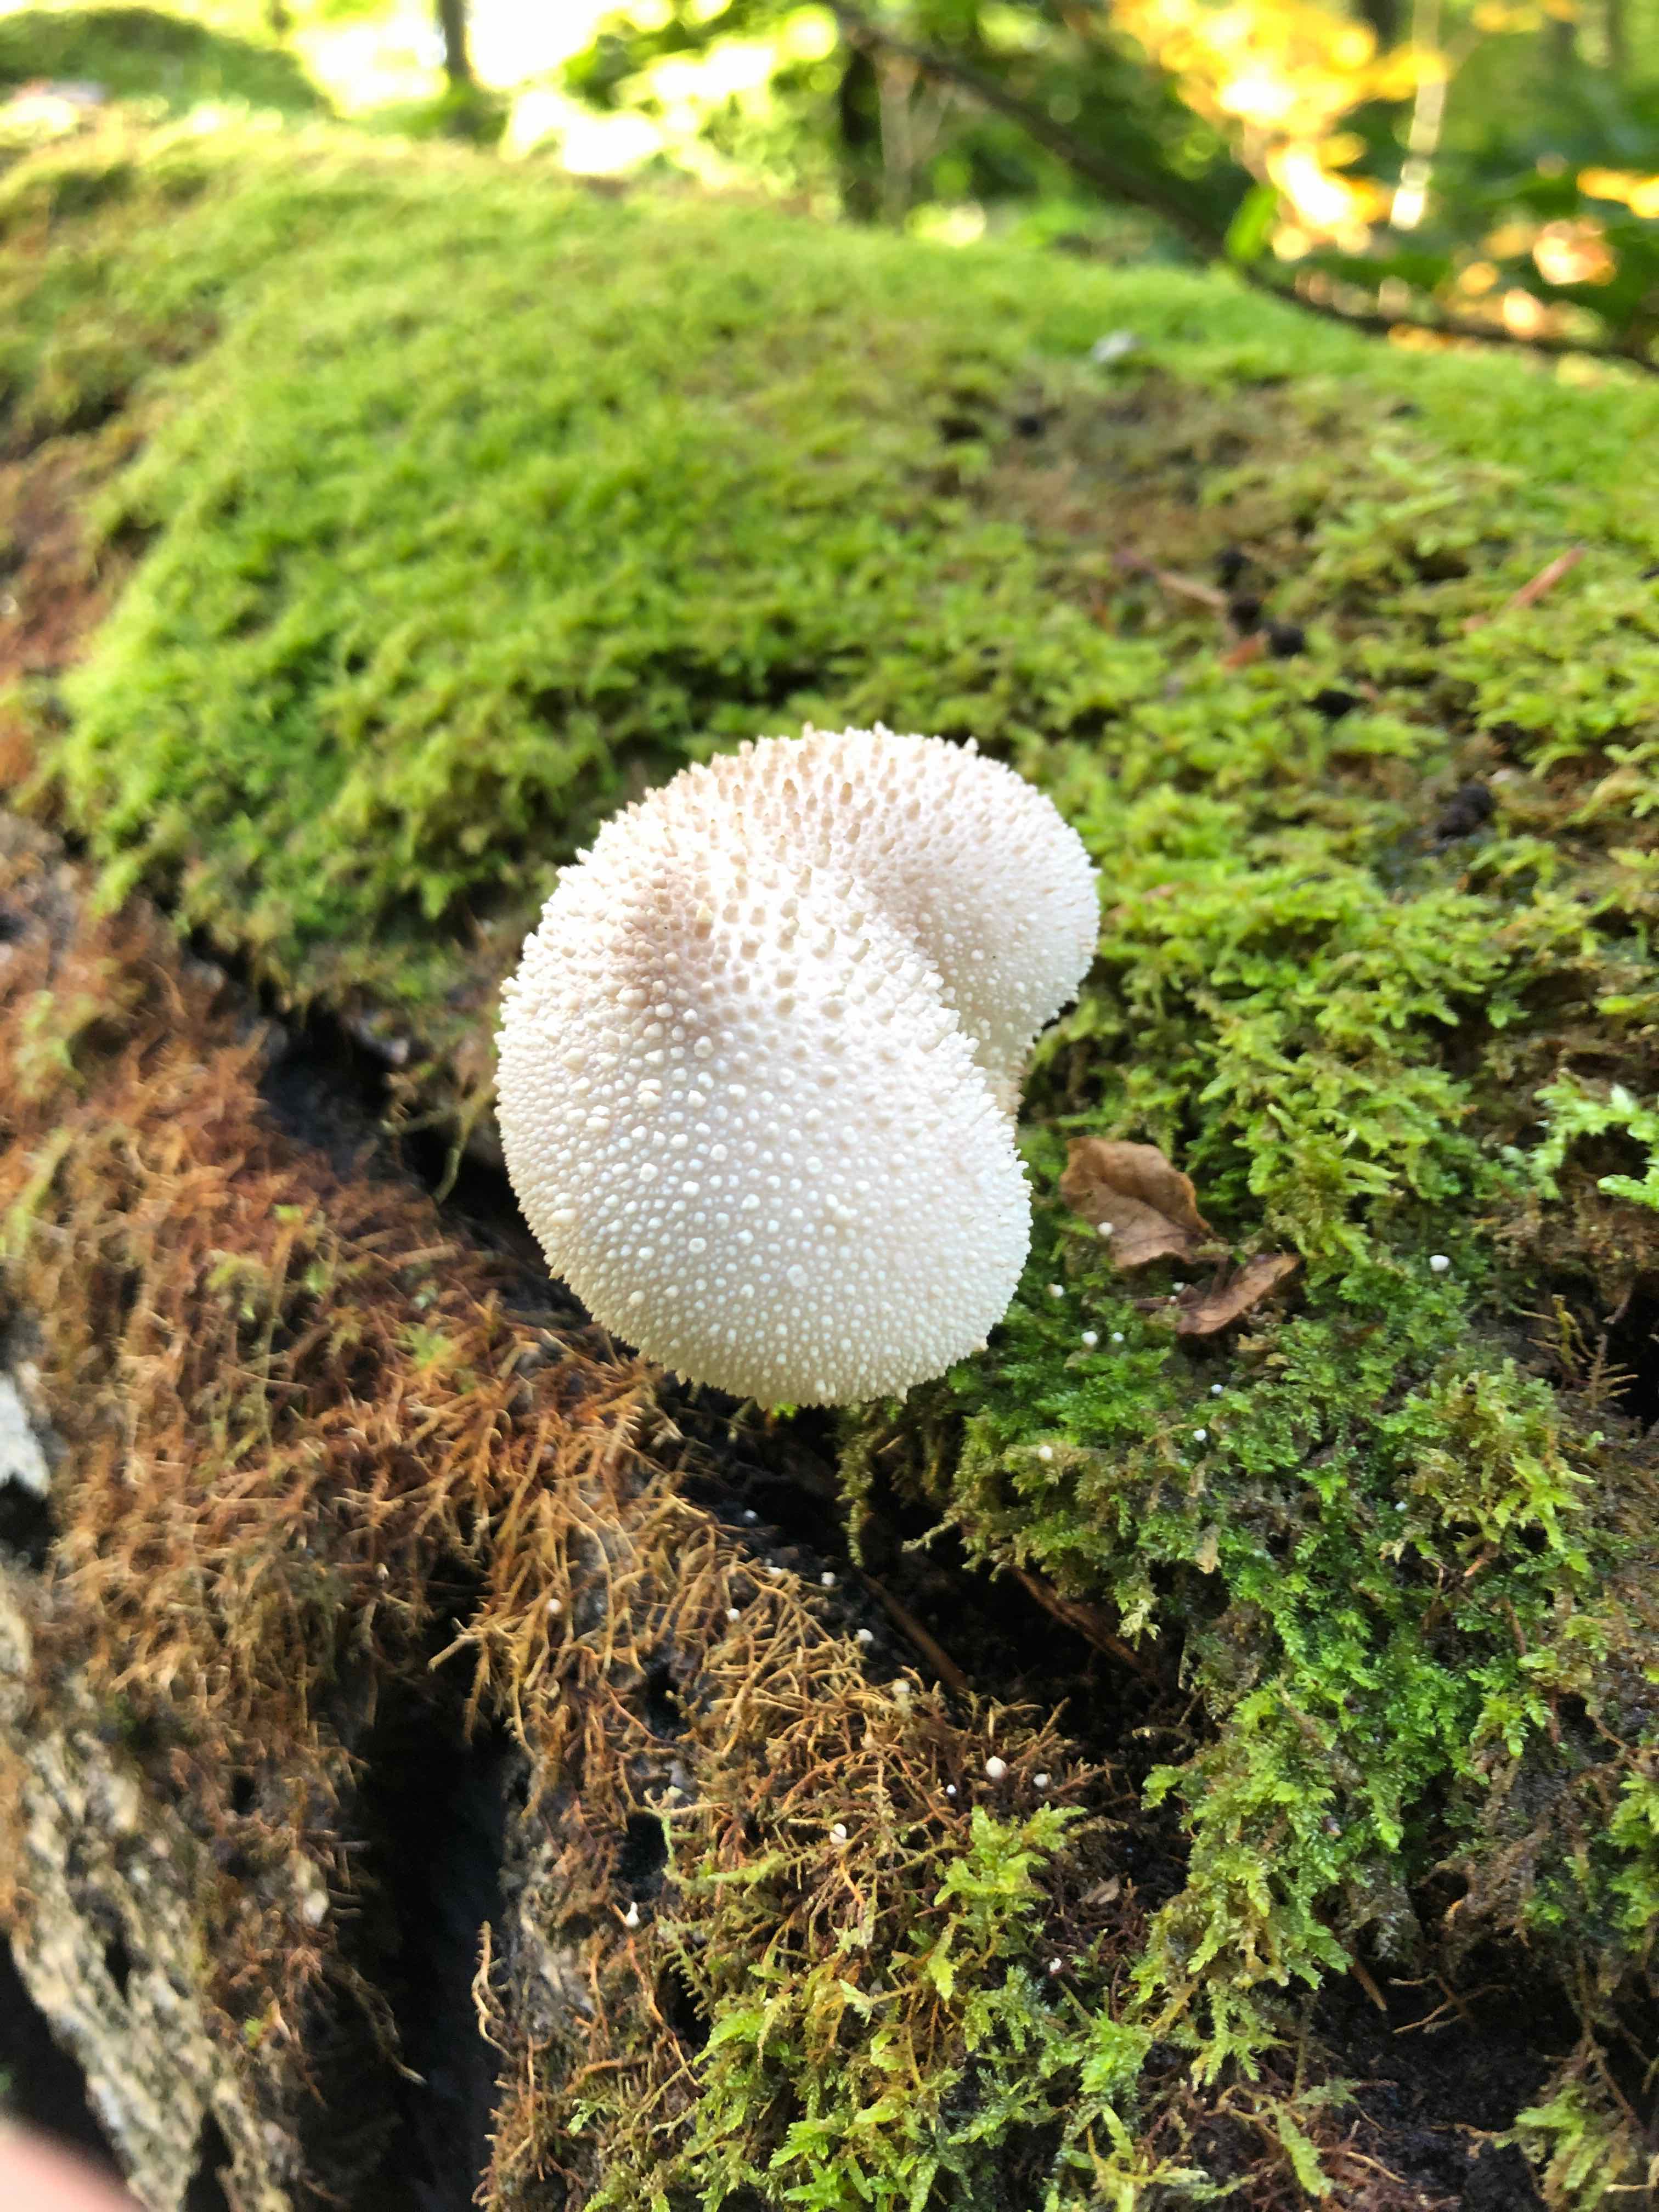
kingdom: Fungi
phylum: Basidiomycota
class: Agaricomycetes
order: Agaricales
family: Lycoperdaceae
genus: Lycoperdon
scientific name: Lycoperdon perlatum
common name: krystal-støvbold
